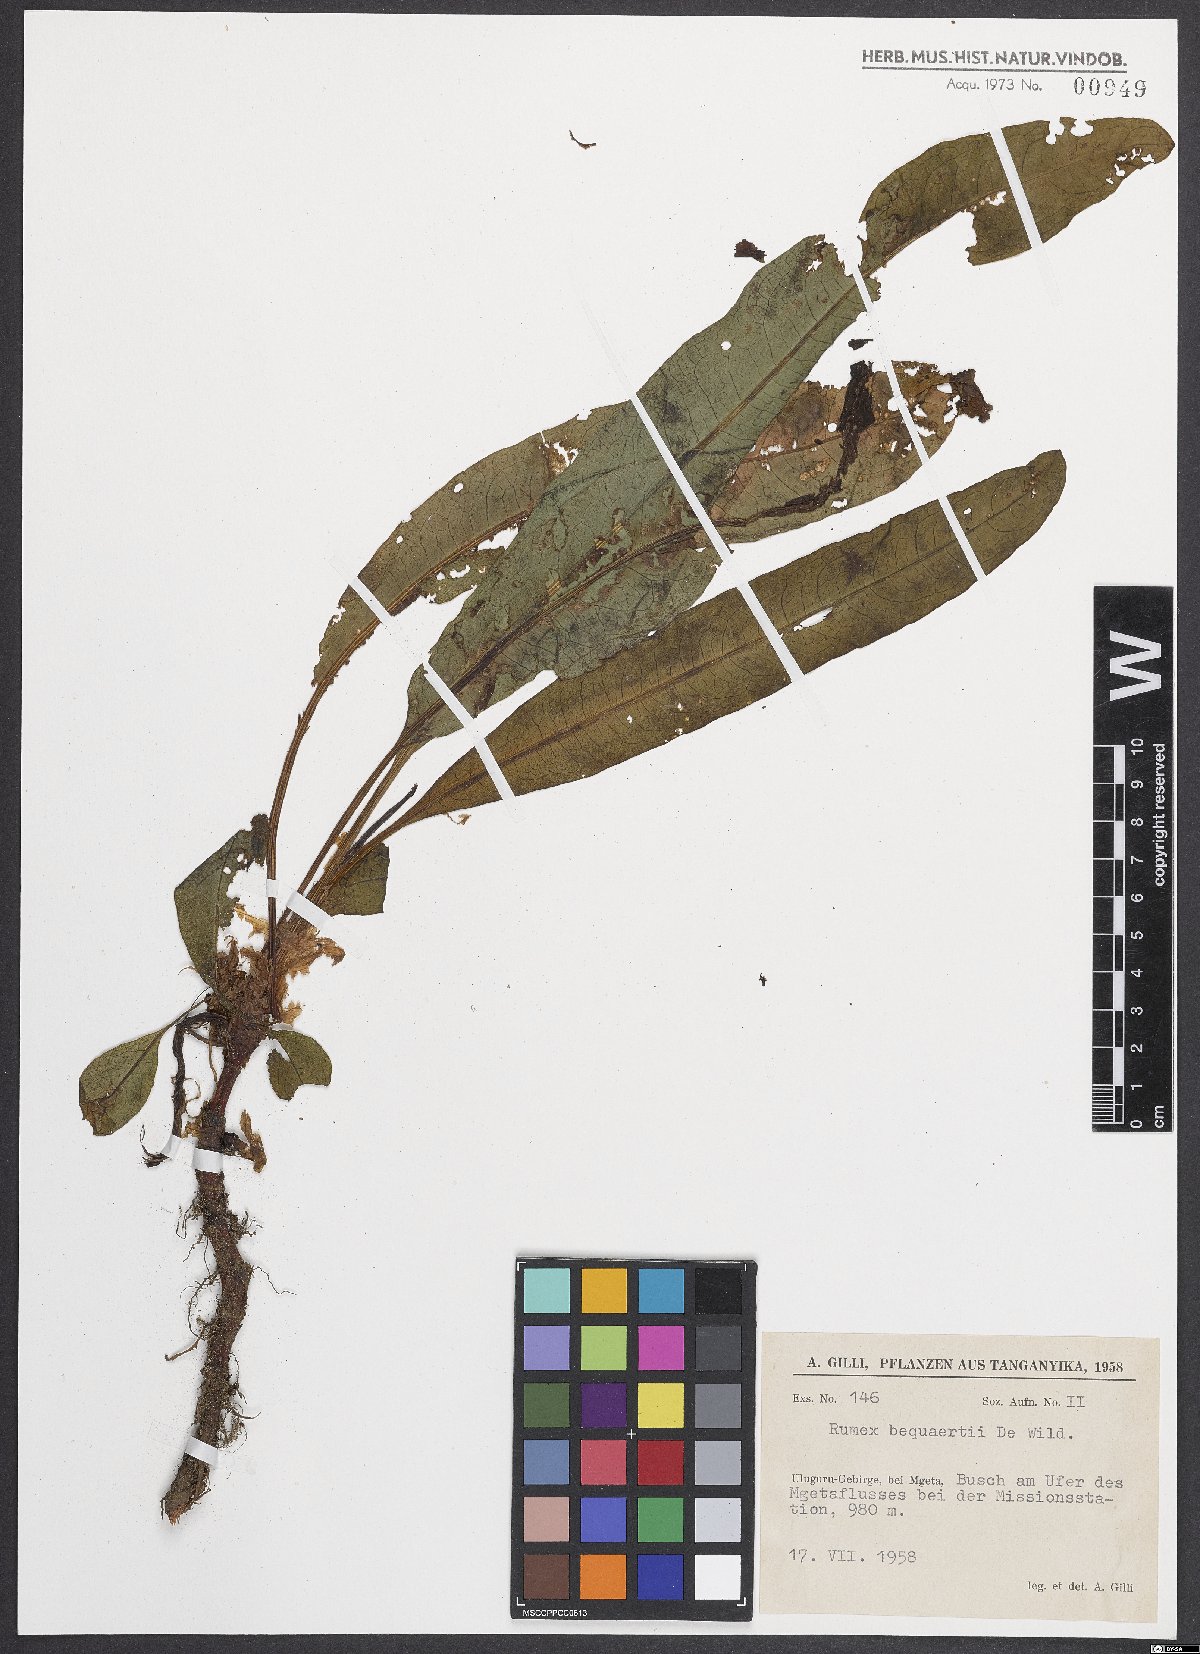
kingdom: Plantae
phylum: Tracheophyta
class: Magnoliopsida
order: Caryophyllales
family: Polygonaceae
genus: Rumex
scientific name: Rumex bequaertii
